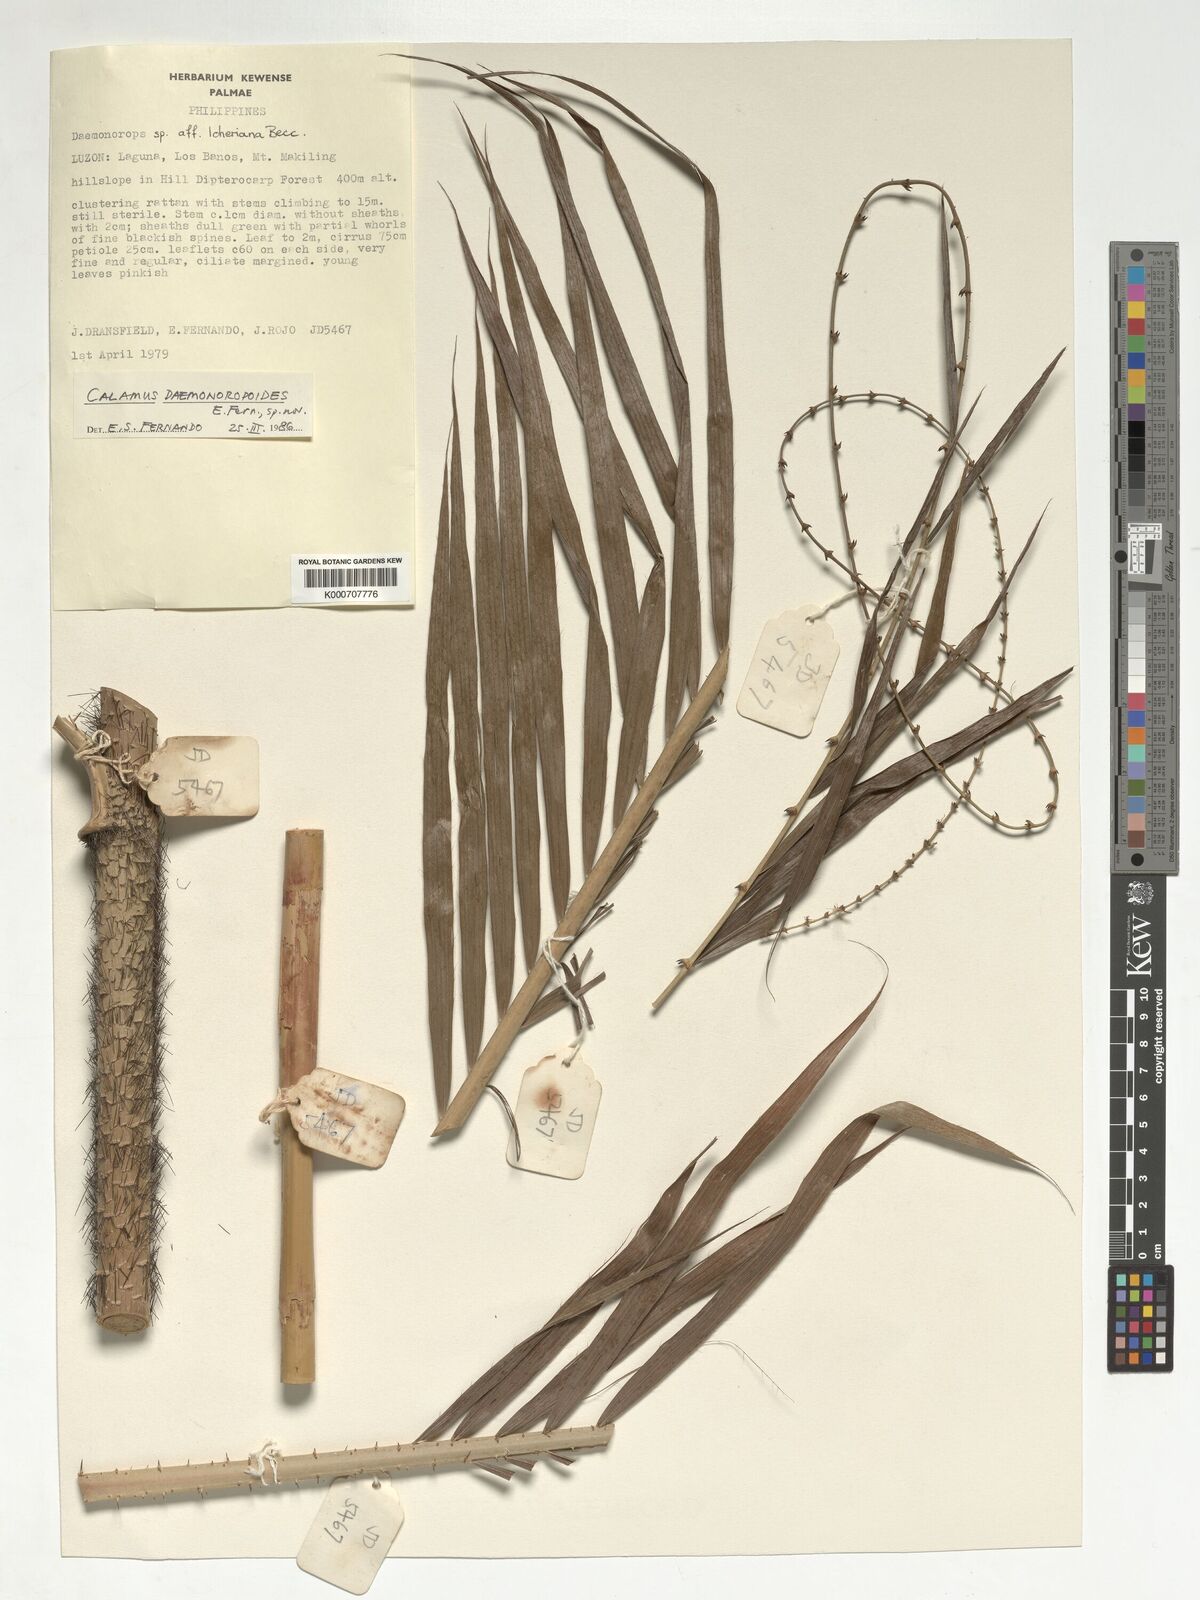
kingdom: Plantae
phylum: Tracheophyta
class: Liliopsida
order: Arecales
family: Arecaceae
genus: Calamus
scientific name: Calamus erinaceus
